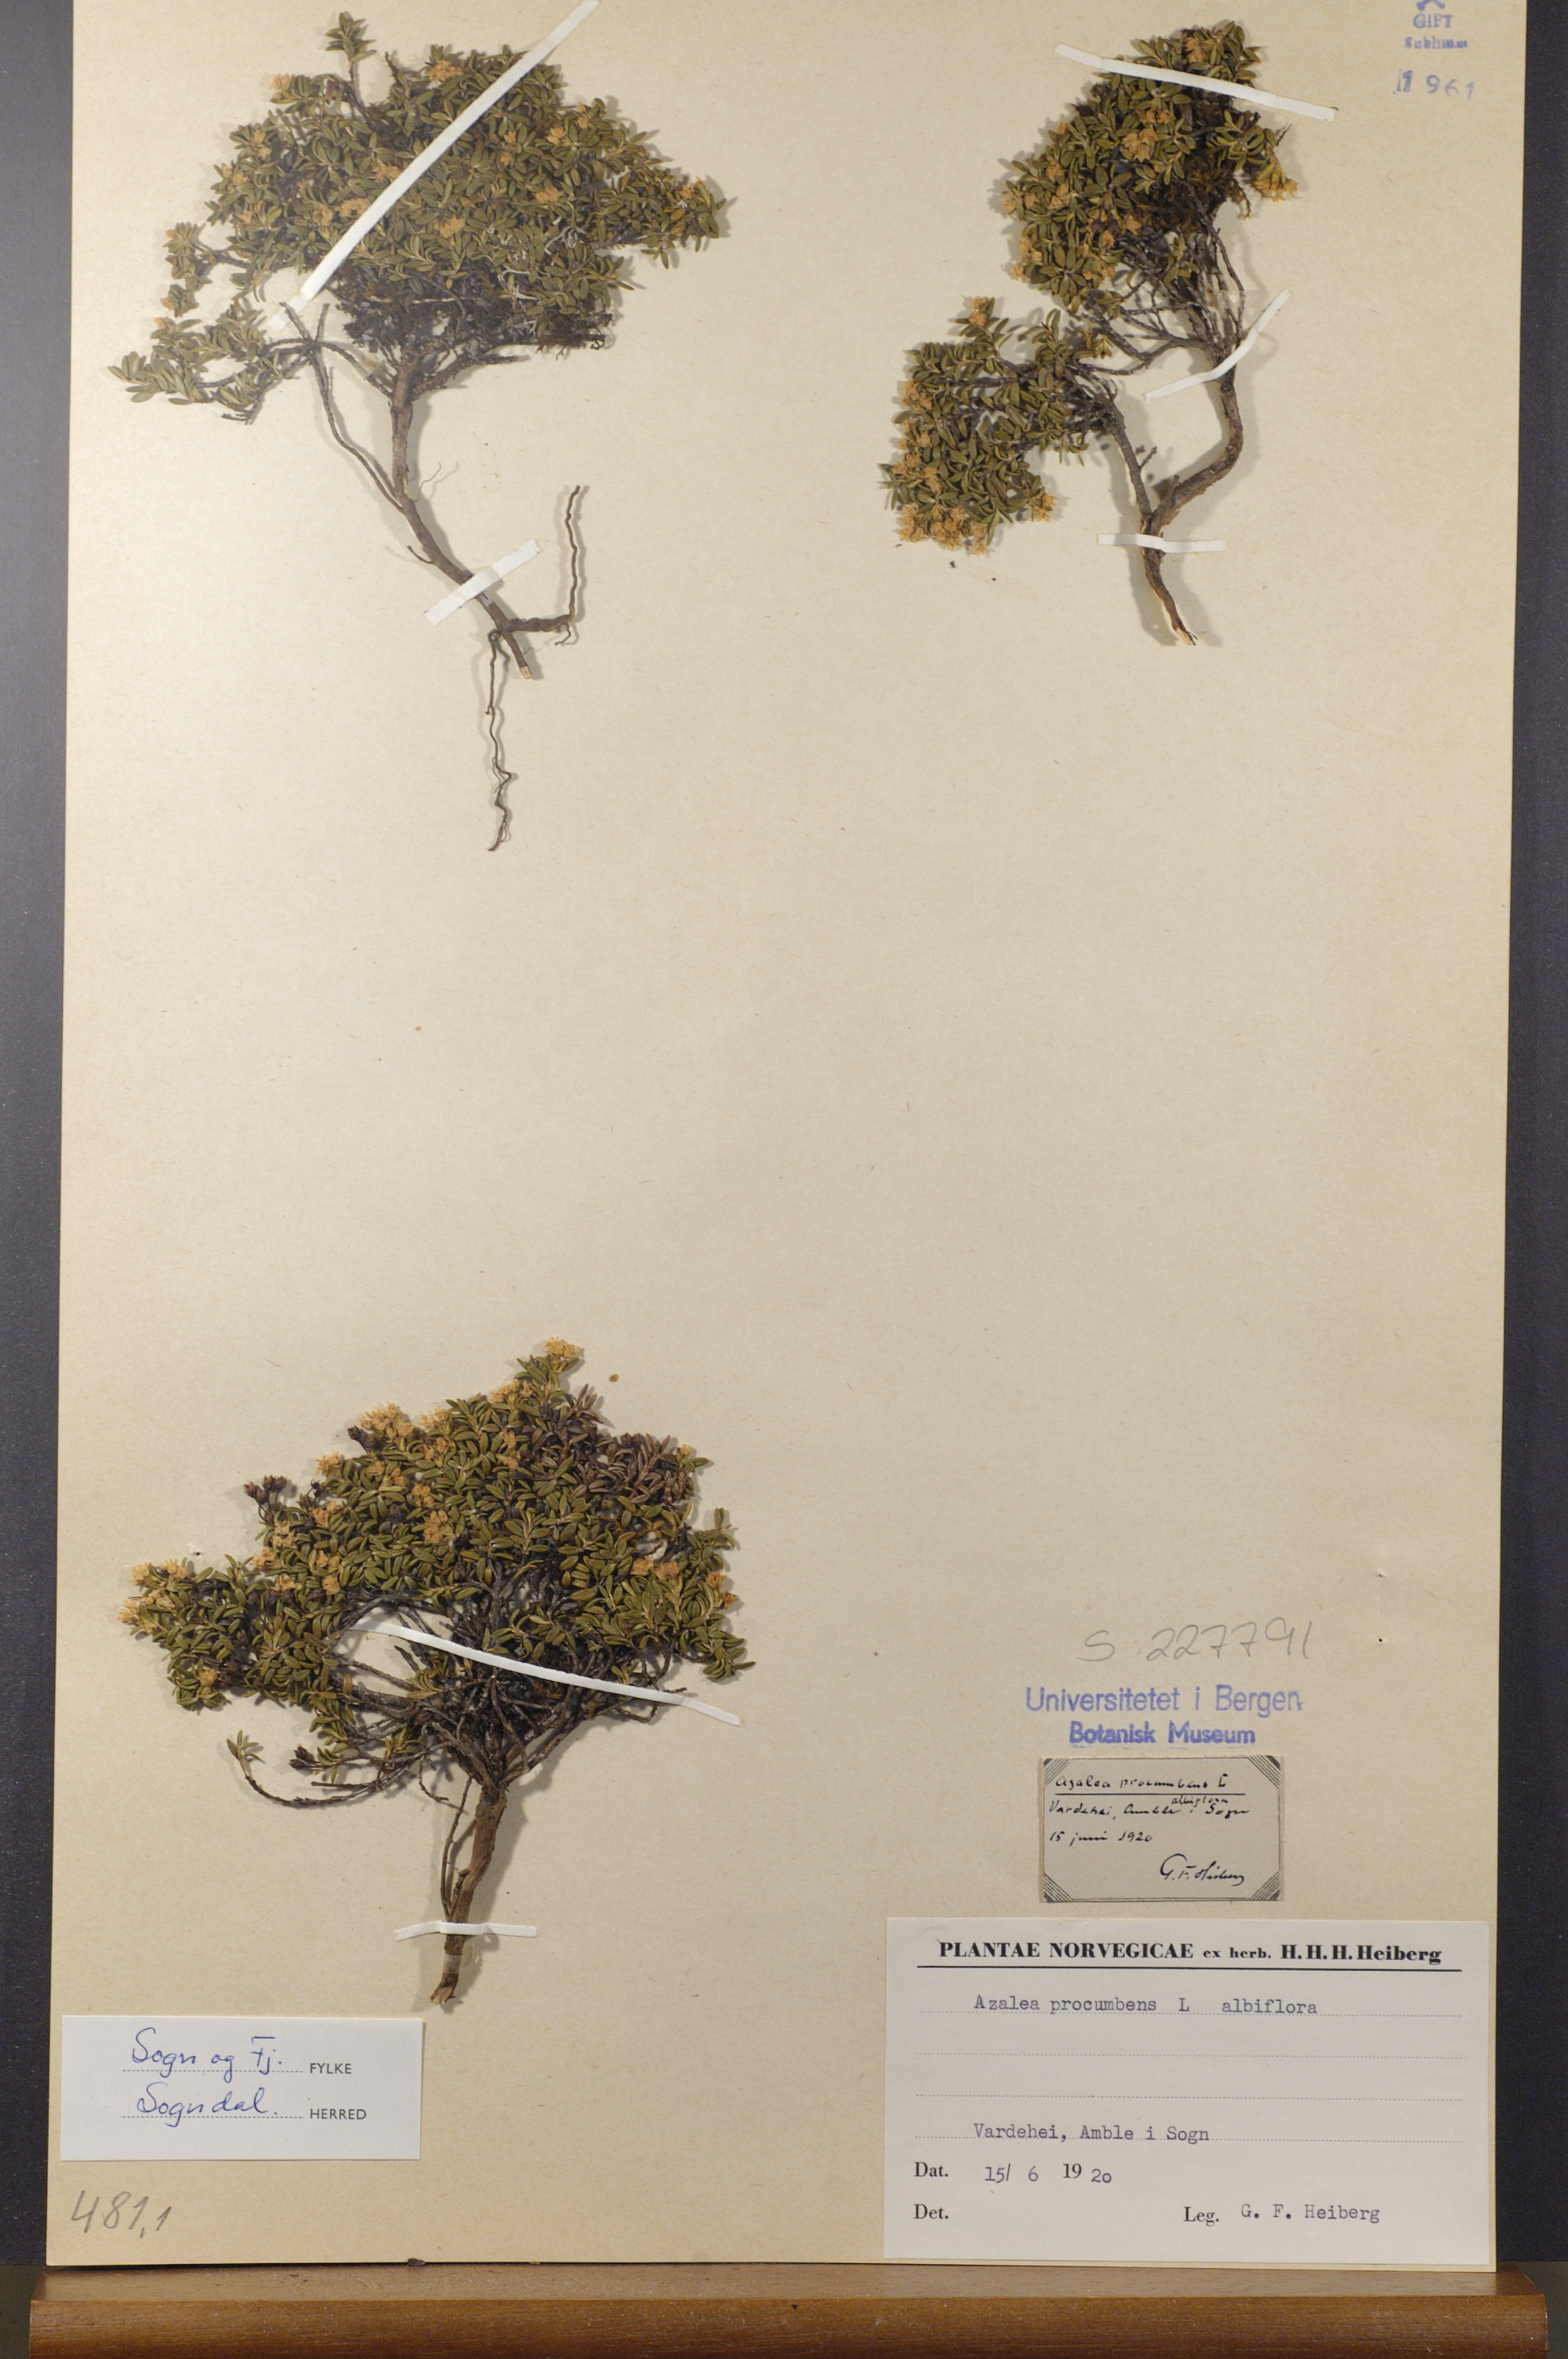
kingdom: Plantae
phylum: Tracheophyta
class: Magnoliopsida
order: Ericales
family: Ericaceae
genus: Kalmia
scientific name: Kalmia procumbens
